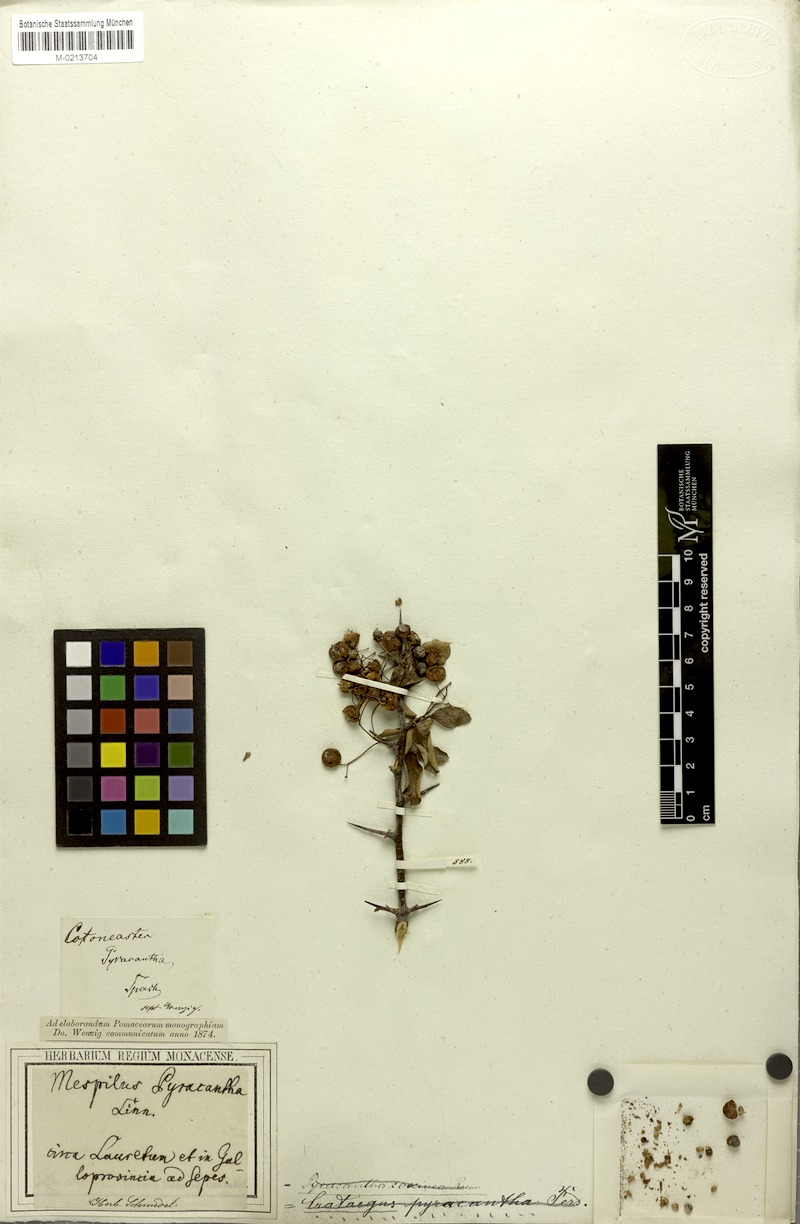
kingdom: Plantae
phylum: Tracheophyta
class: Magnoliopsida
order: Rosales
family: Rosaceae
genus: Pyracantha
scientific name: Pyracantha coccinea
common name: Firethorn
